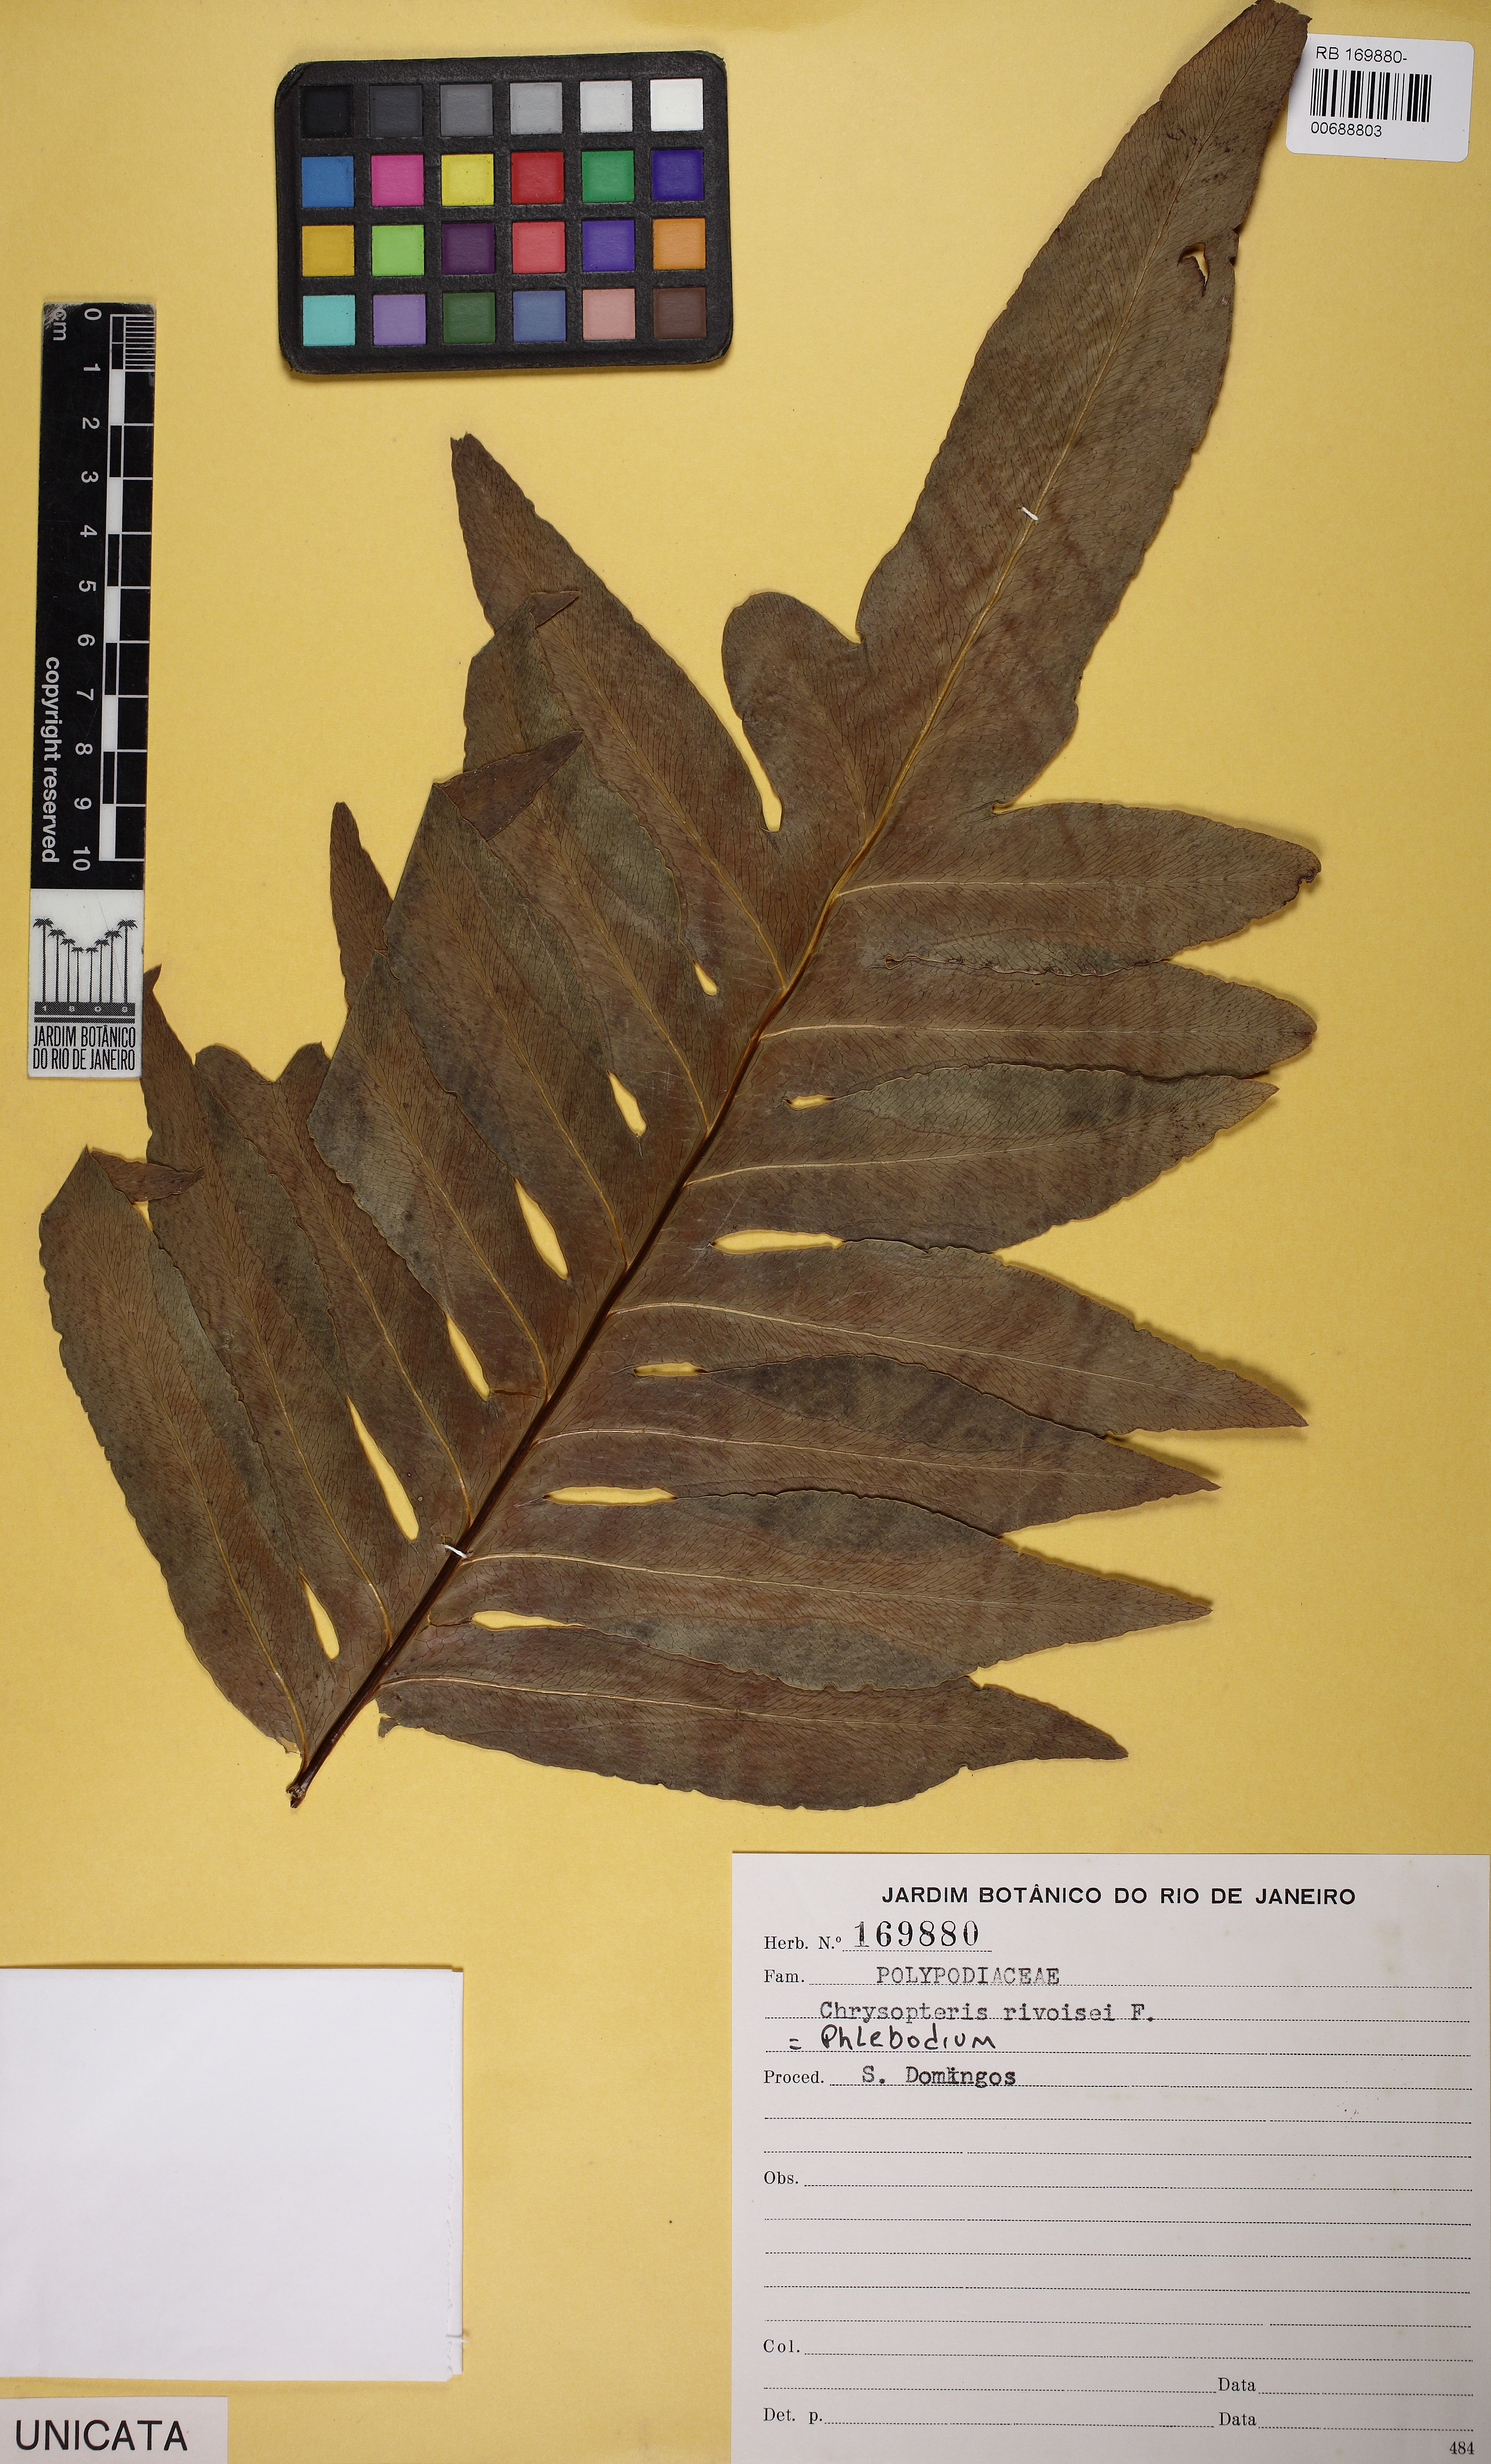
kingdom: Plantae
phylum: Tracheophyta
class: Polypodiopsida
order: Polypodiales
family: Polypodiaceae
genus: Phlebodium
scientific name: Phlebodium
